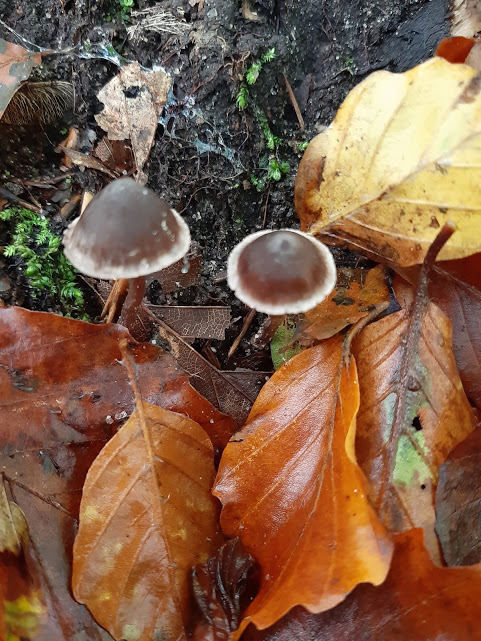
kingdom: Fungi
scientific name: Fungi
